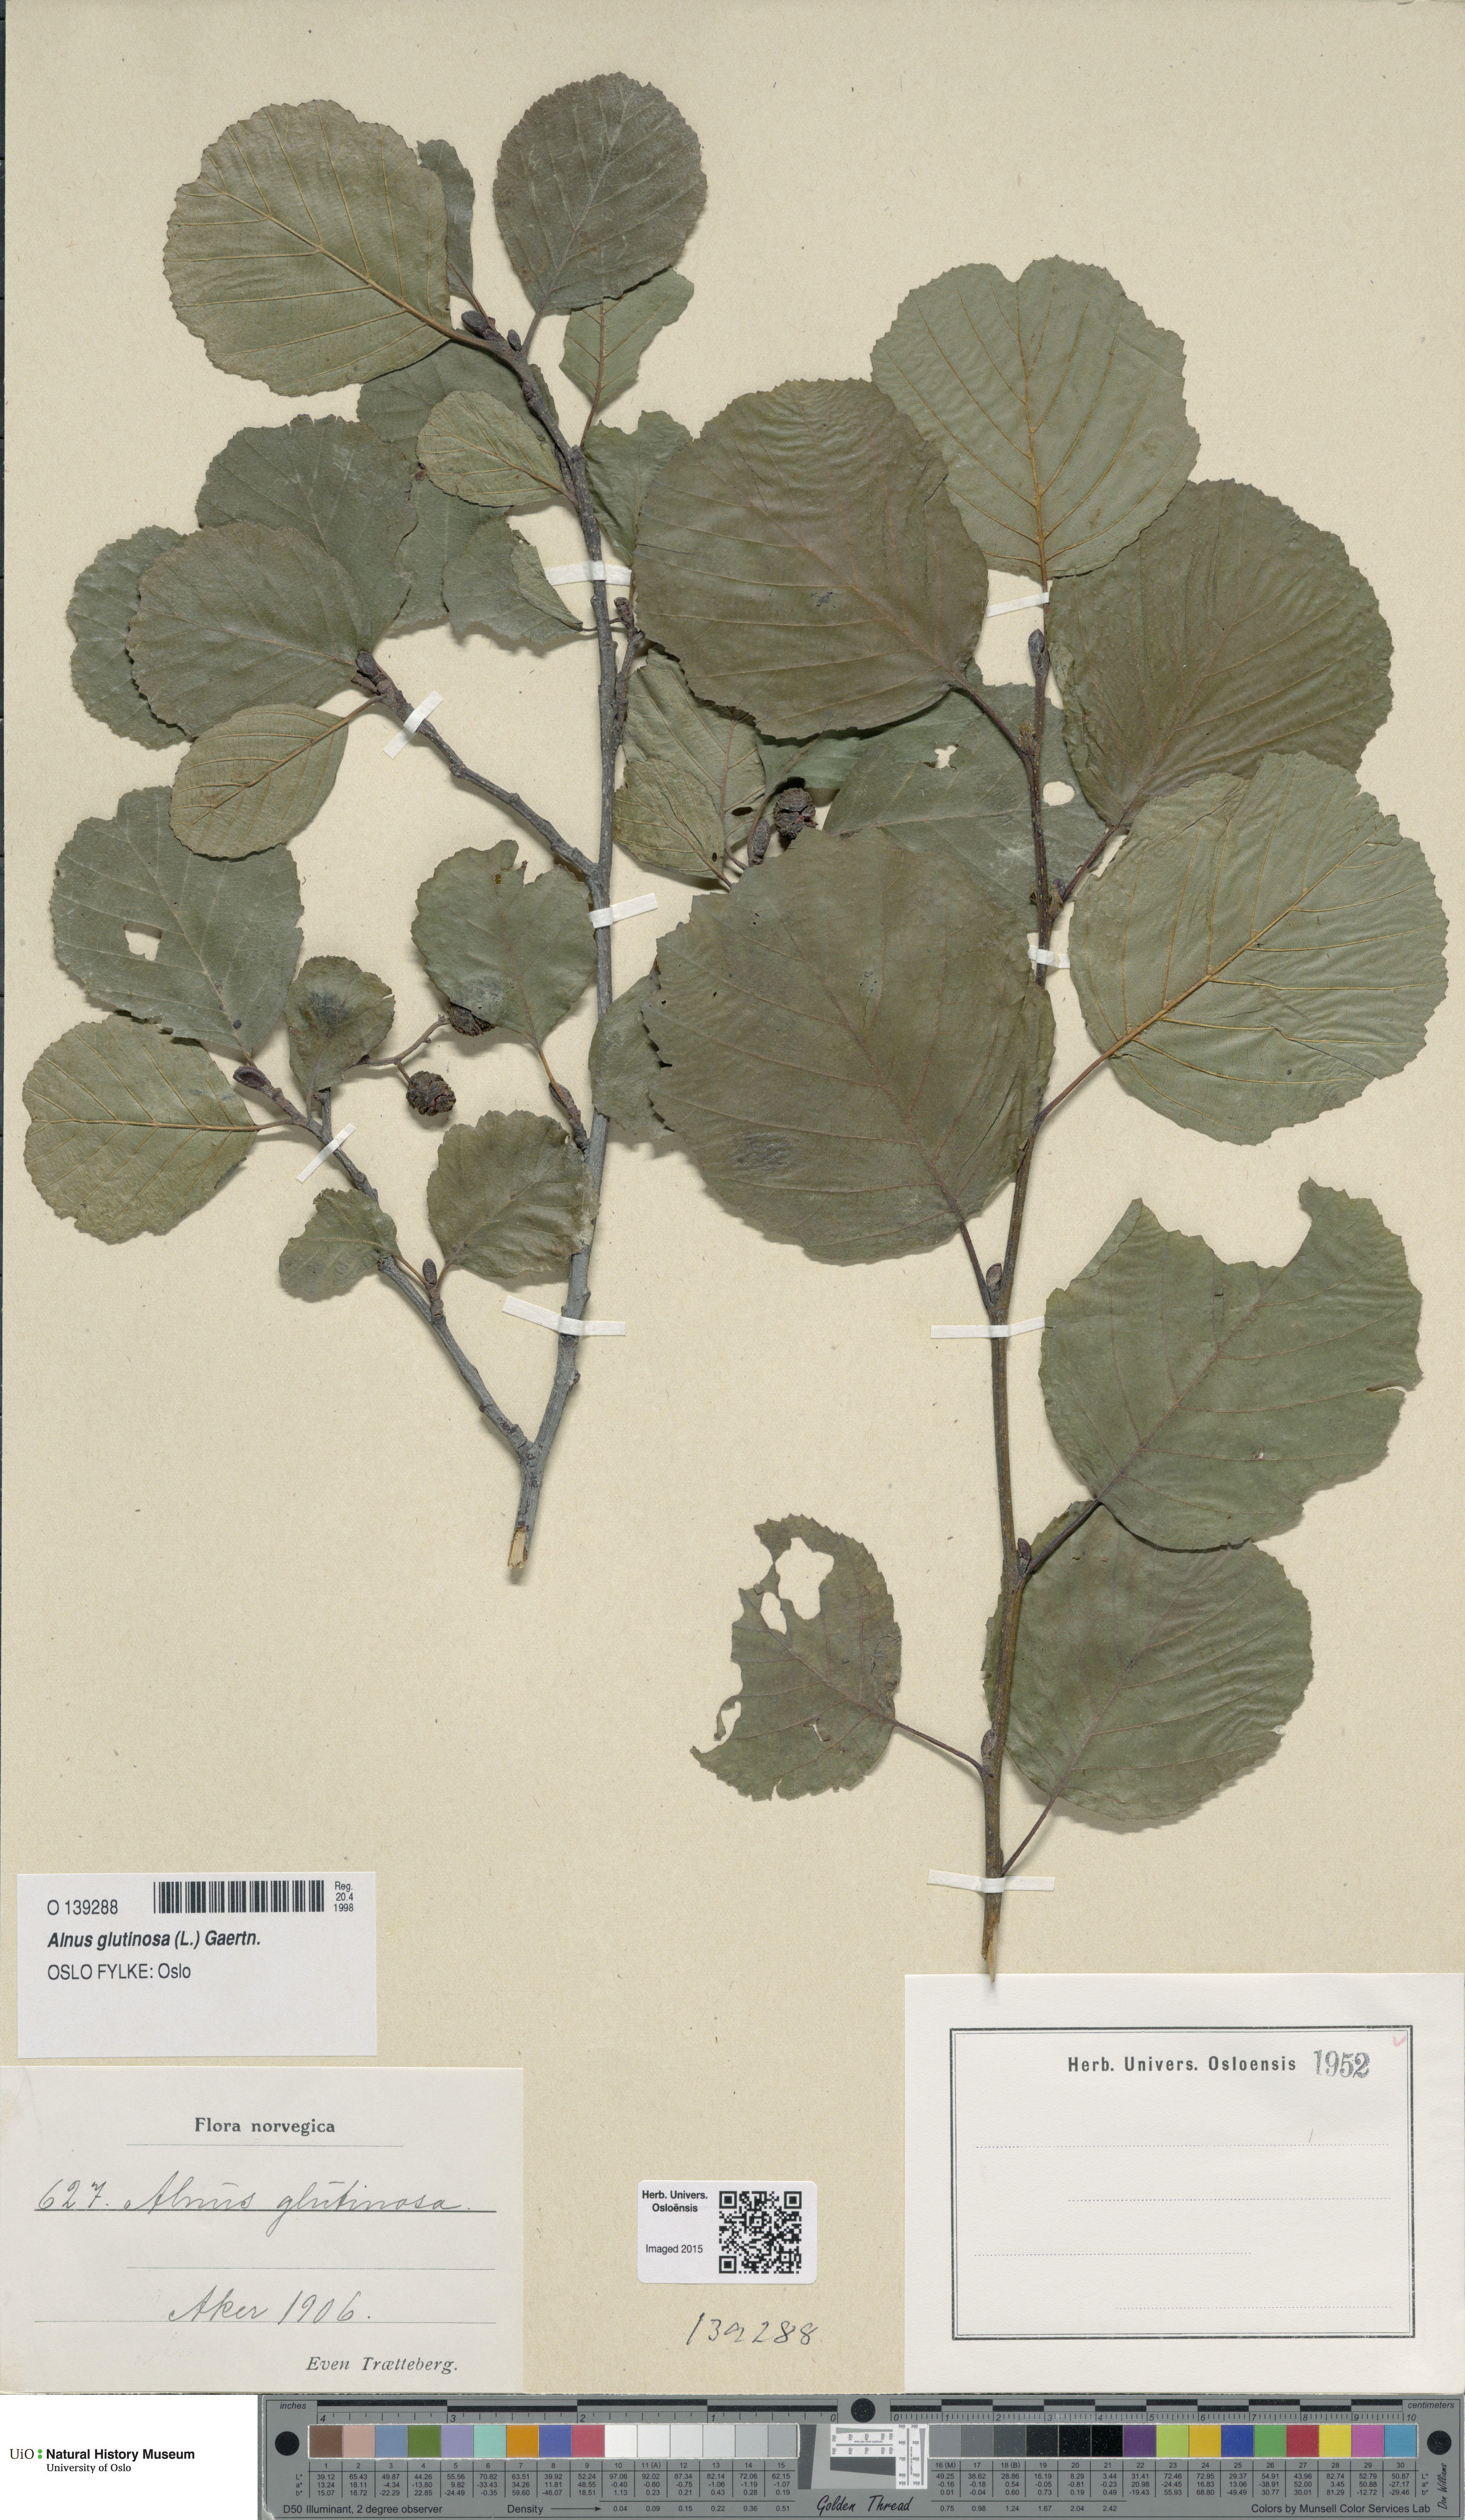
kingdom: Plantae
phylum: Tracheophyta
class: Magnoliopsida
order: Fagales
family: Betulaceae
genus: Alnus
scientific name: Alnus glutinosa
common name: Black alder
